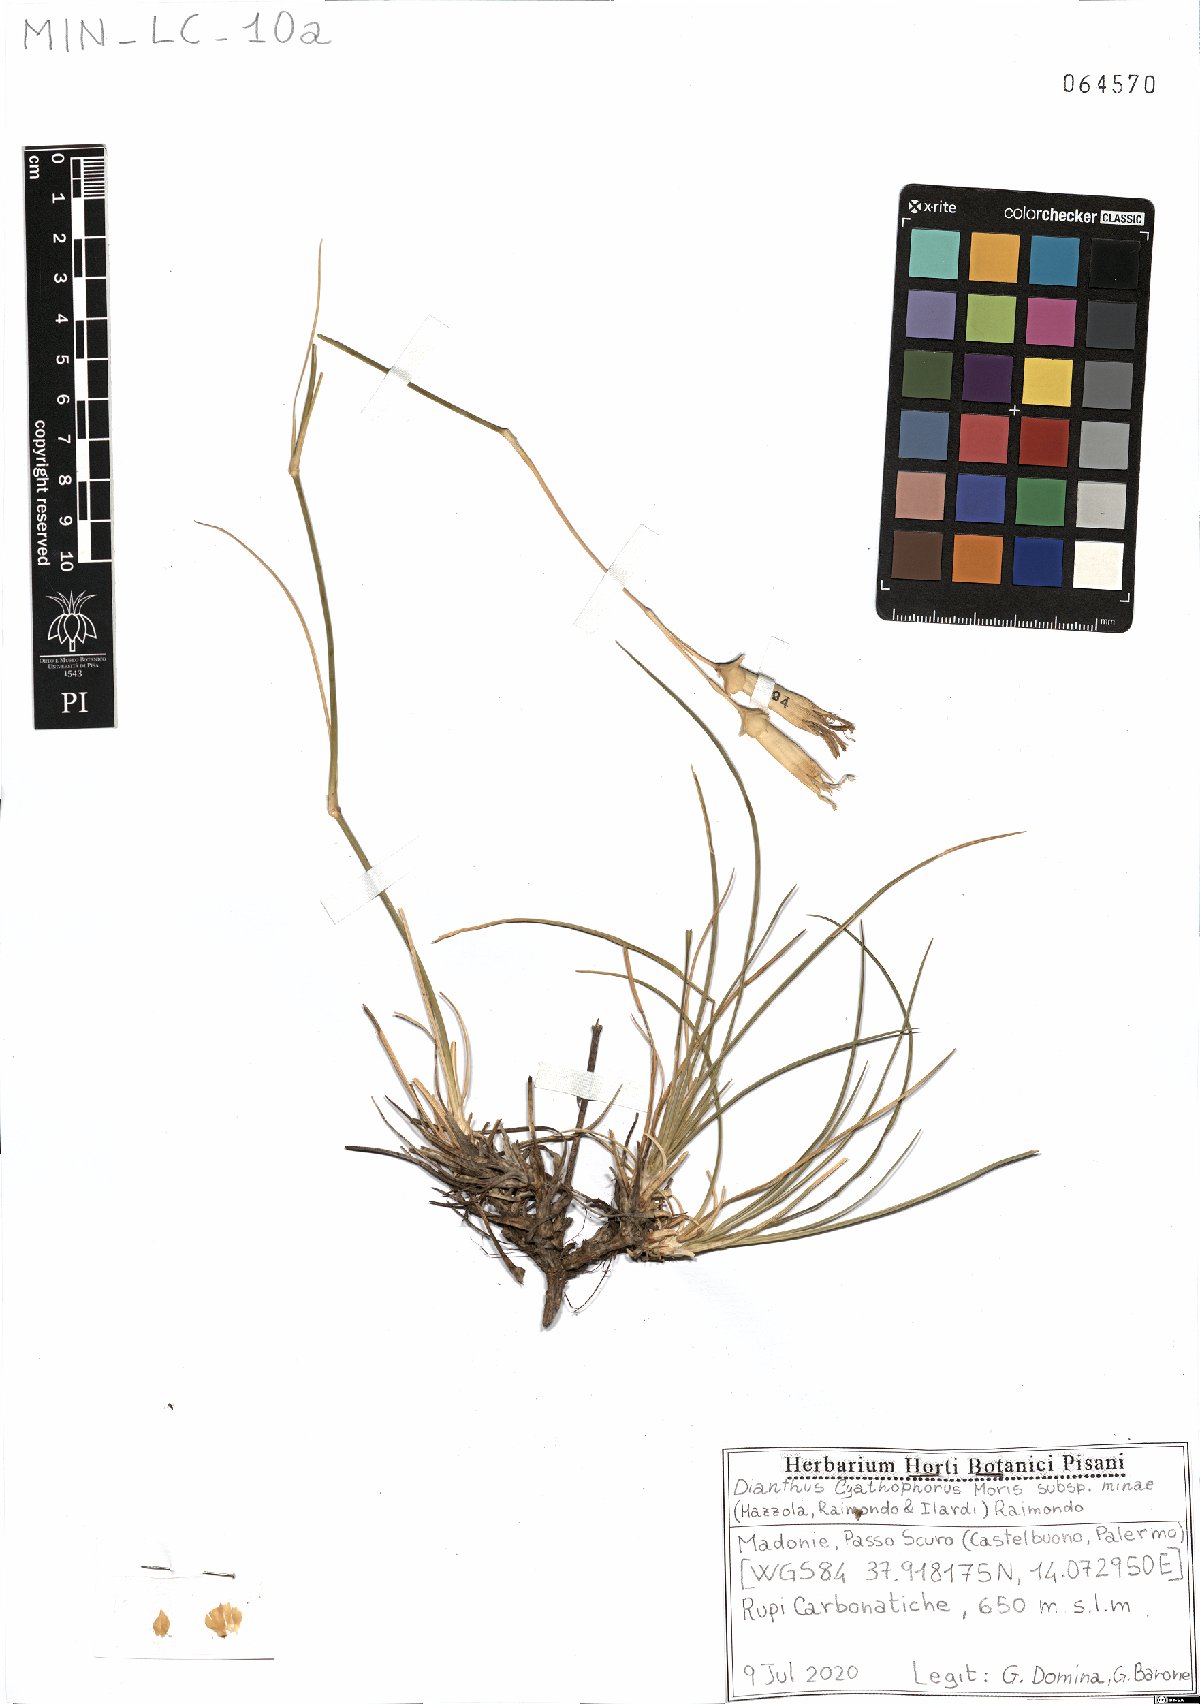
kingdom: Plantae
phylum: Tracheophyta
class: Magnoliopsida
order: Caryophyllales
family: Caryophyllaceae
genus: Dianthus
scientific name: Dianthus siculus
